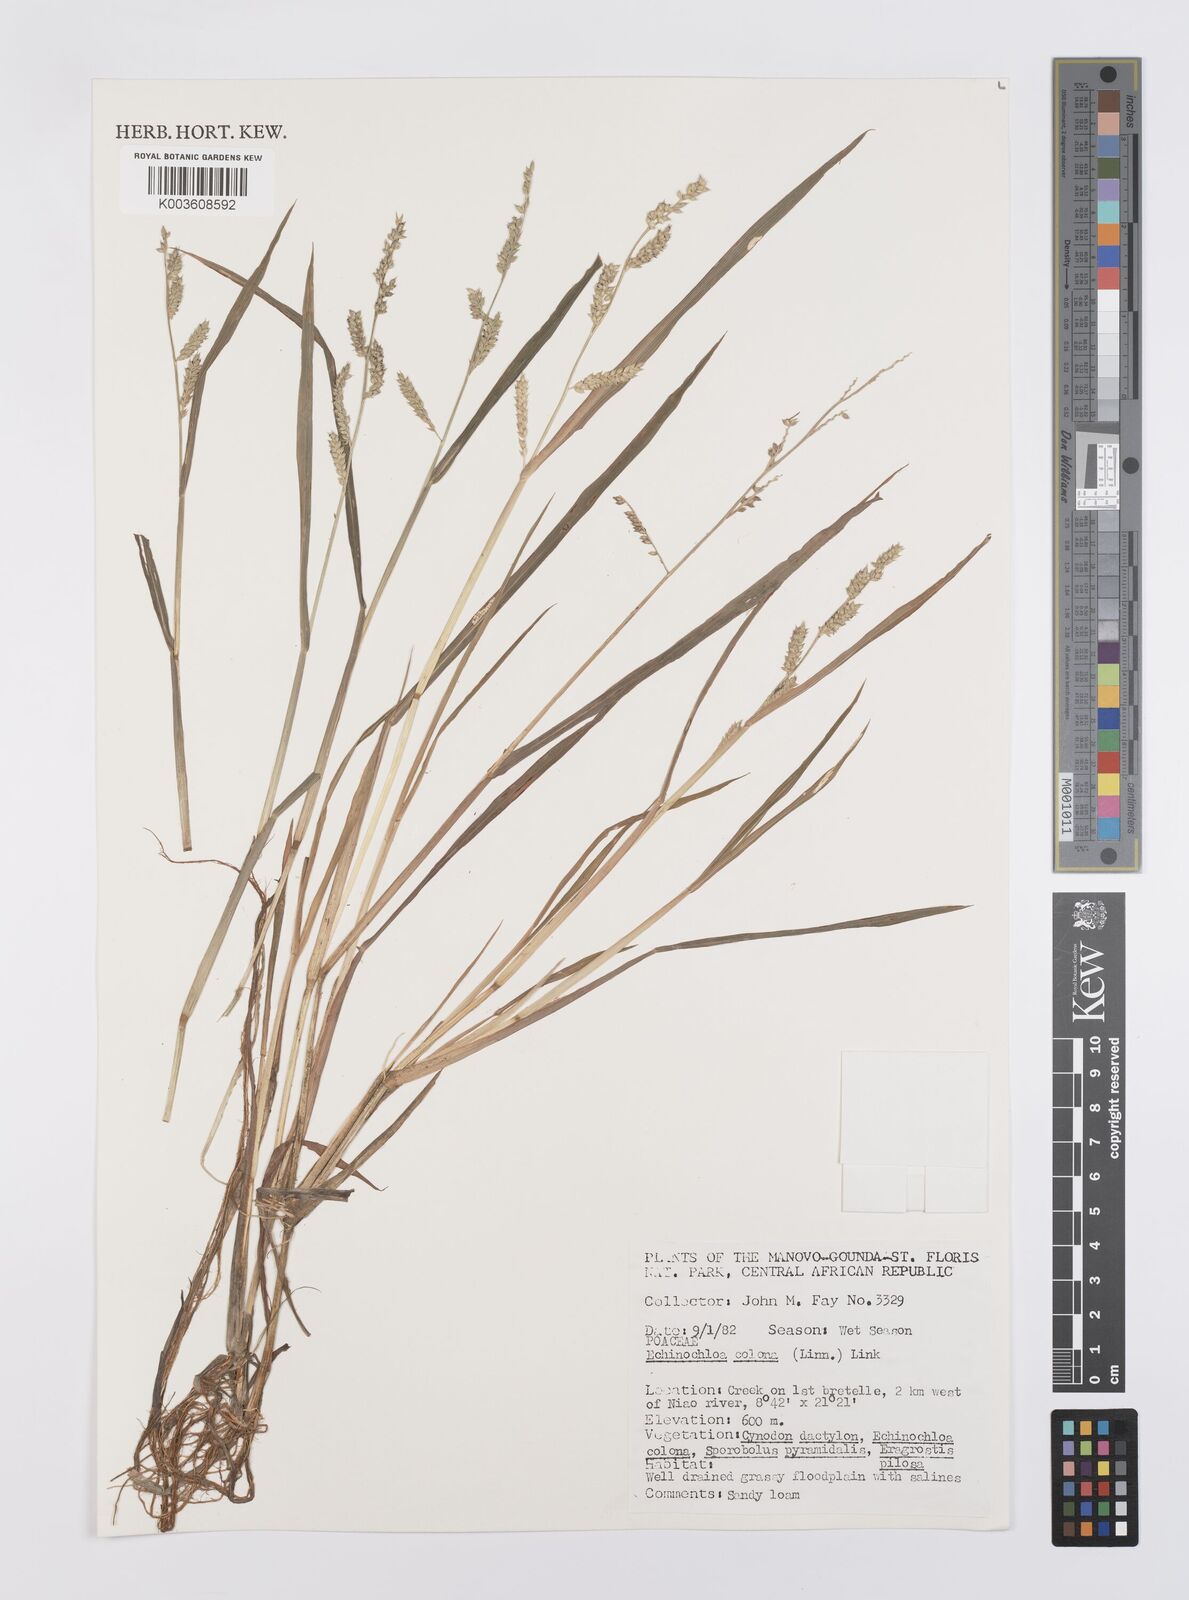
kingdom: Plantae
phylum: Tracheophyta
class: Liliopsida
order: Poales
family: Poaceae
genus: Echinochloa
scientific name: Echinochloa colonum
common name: Jungle rice
